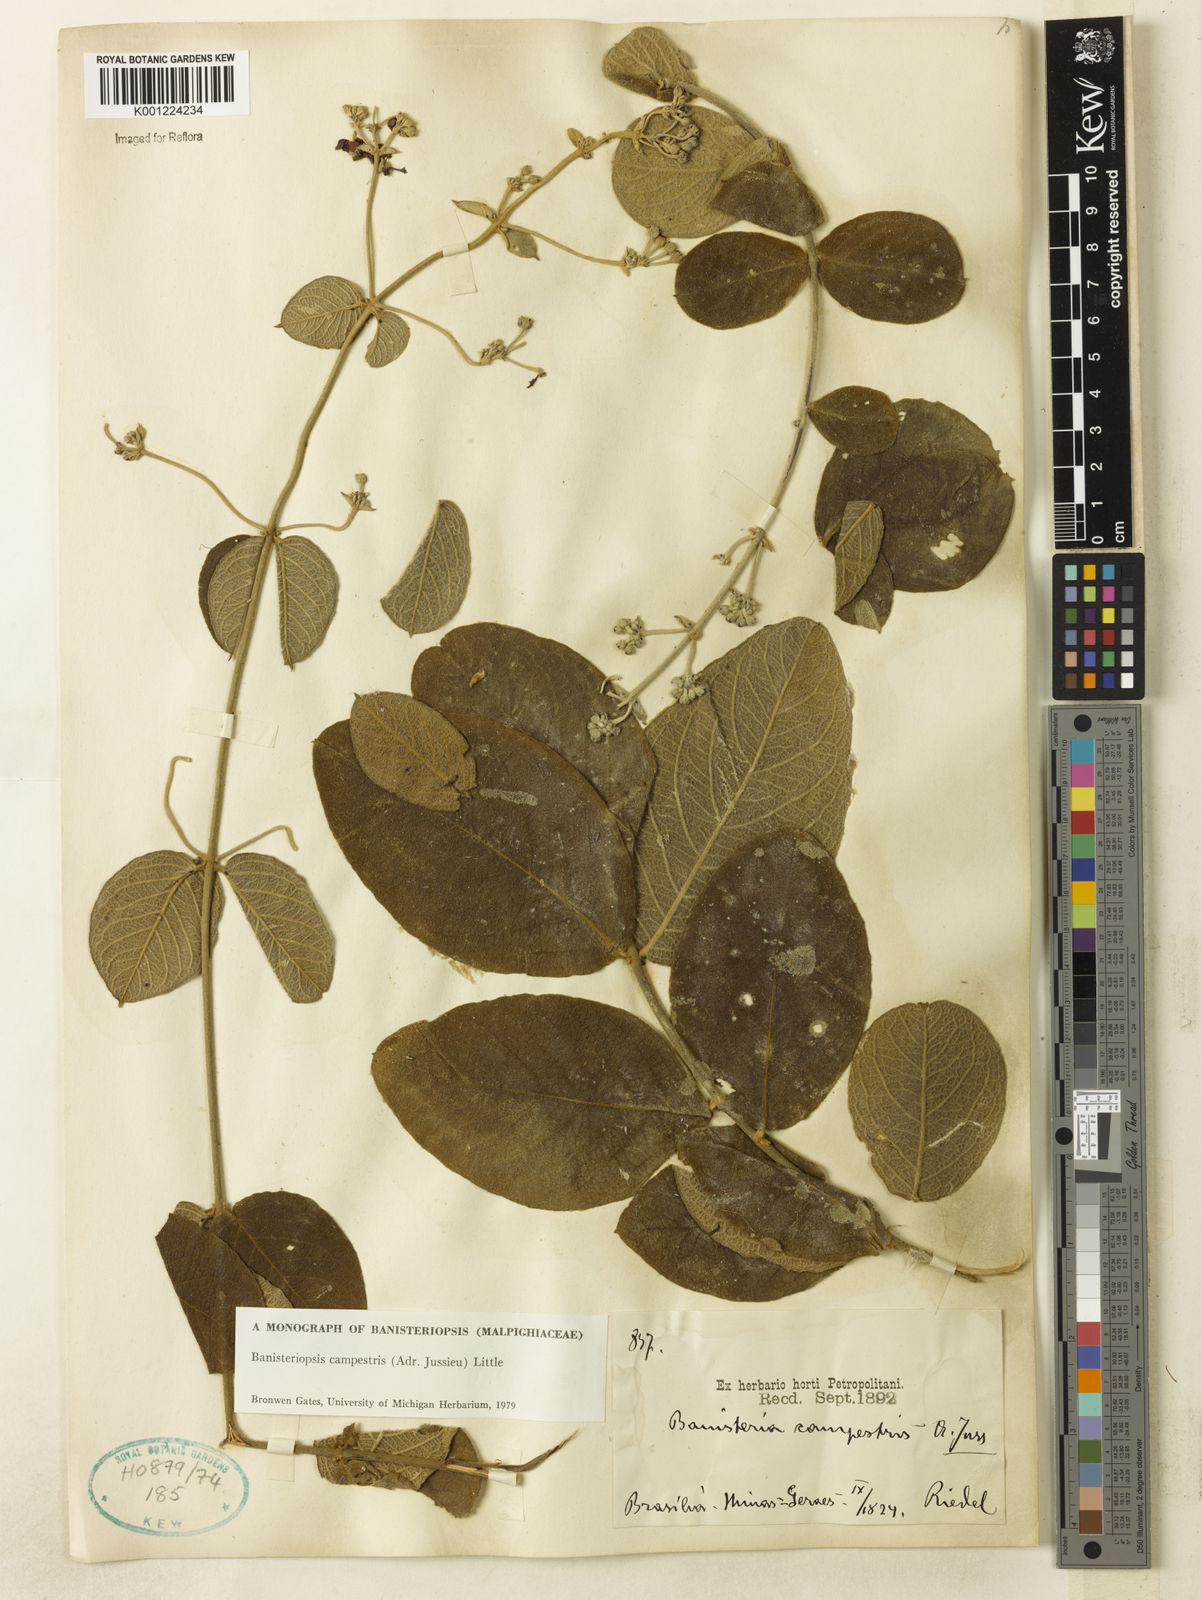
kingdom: Plantae
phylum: Tracheophyta
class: Magnoliopsida
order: Malpighiales
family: Malpighiaceae
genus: Banisteriopsis
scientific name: Banisteriopsis campestris
